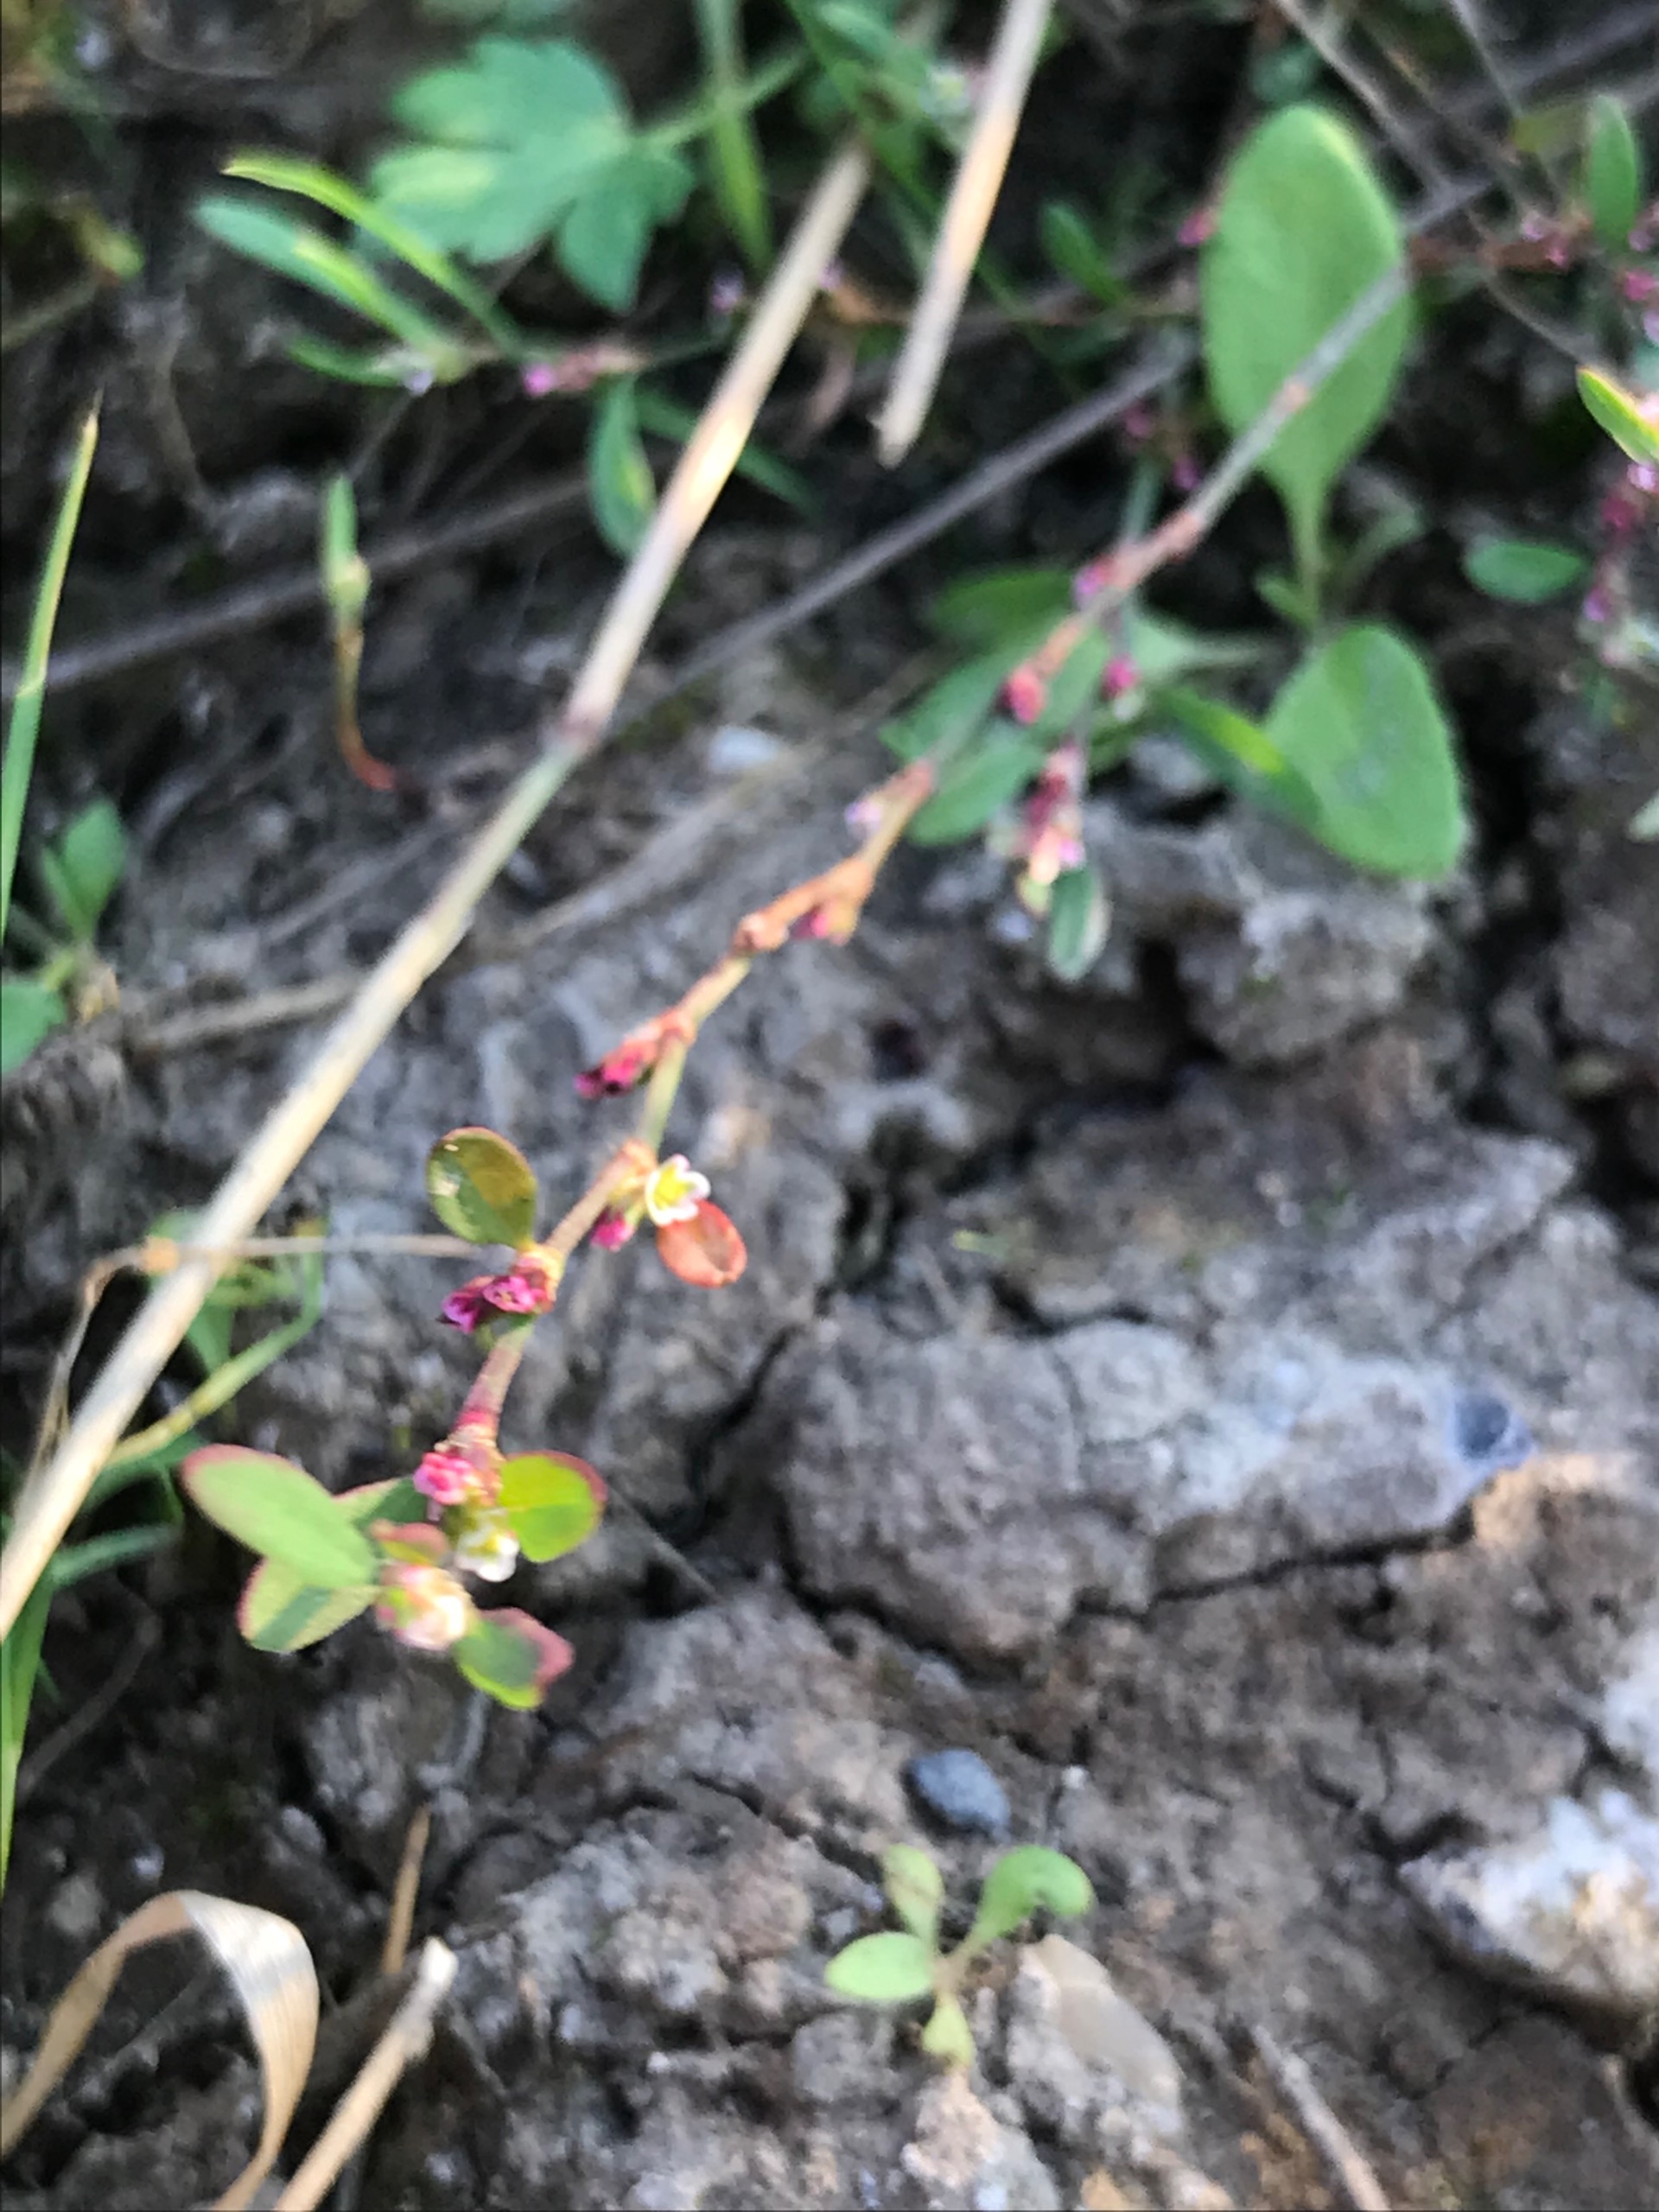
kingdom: Plantae
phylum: Tracheophyta
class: Magnoliopsida
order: Caryophyllales
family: Polygonaceae
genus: Polygonum
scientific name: Polygonum aviculare
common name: Vej-pileurt
